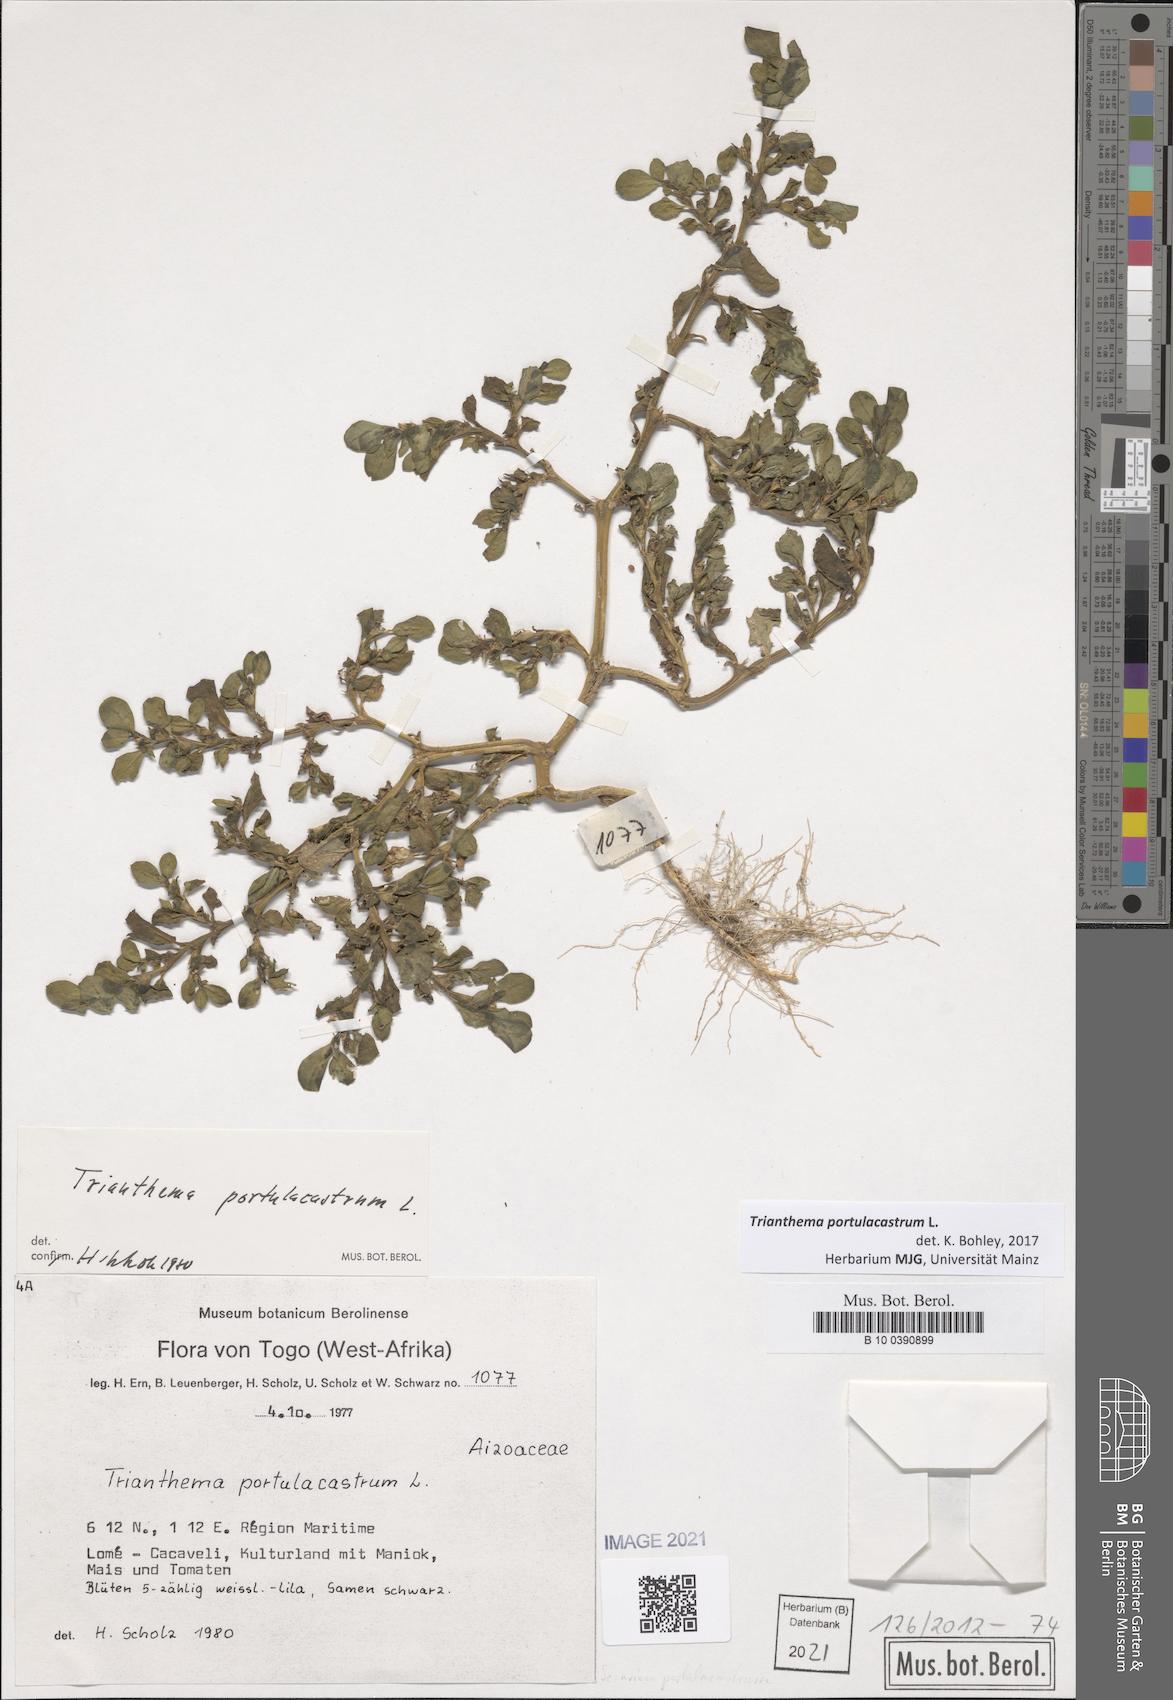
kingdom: Plantae
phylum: Tracheophyta
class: Magnoliopsida
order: Caryophyllales
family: Aizoaceae
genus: Trianthema
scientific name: Trianthema portulacastrum
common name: Desert horsepurslane
